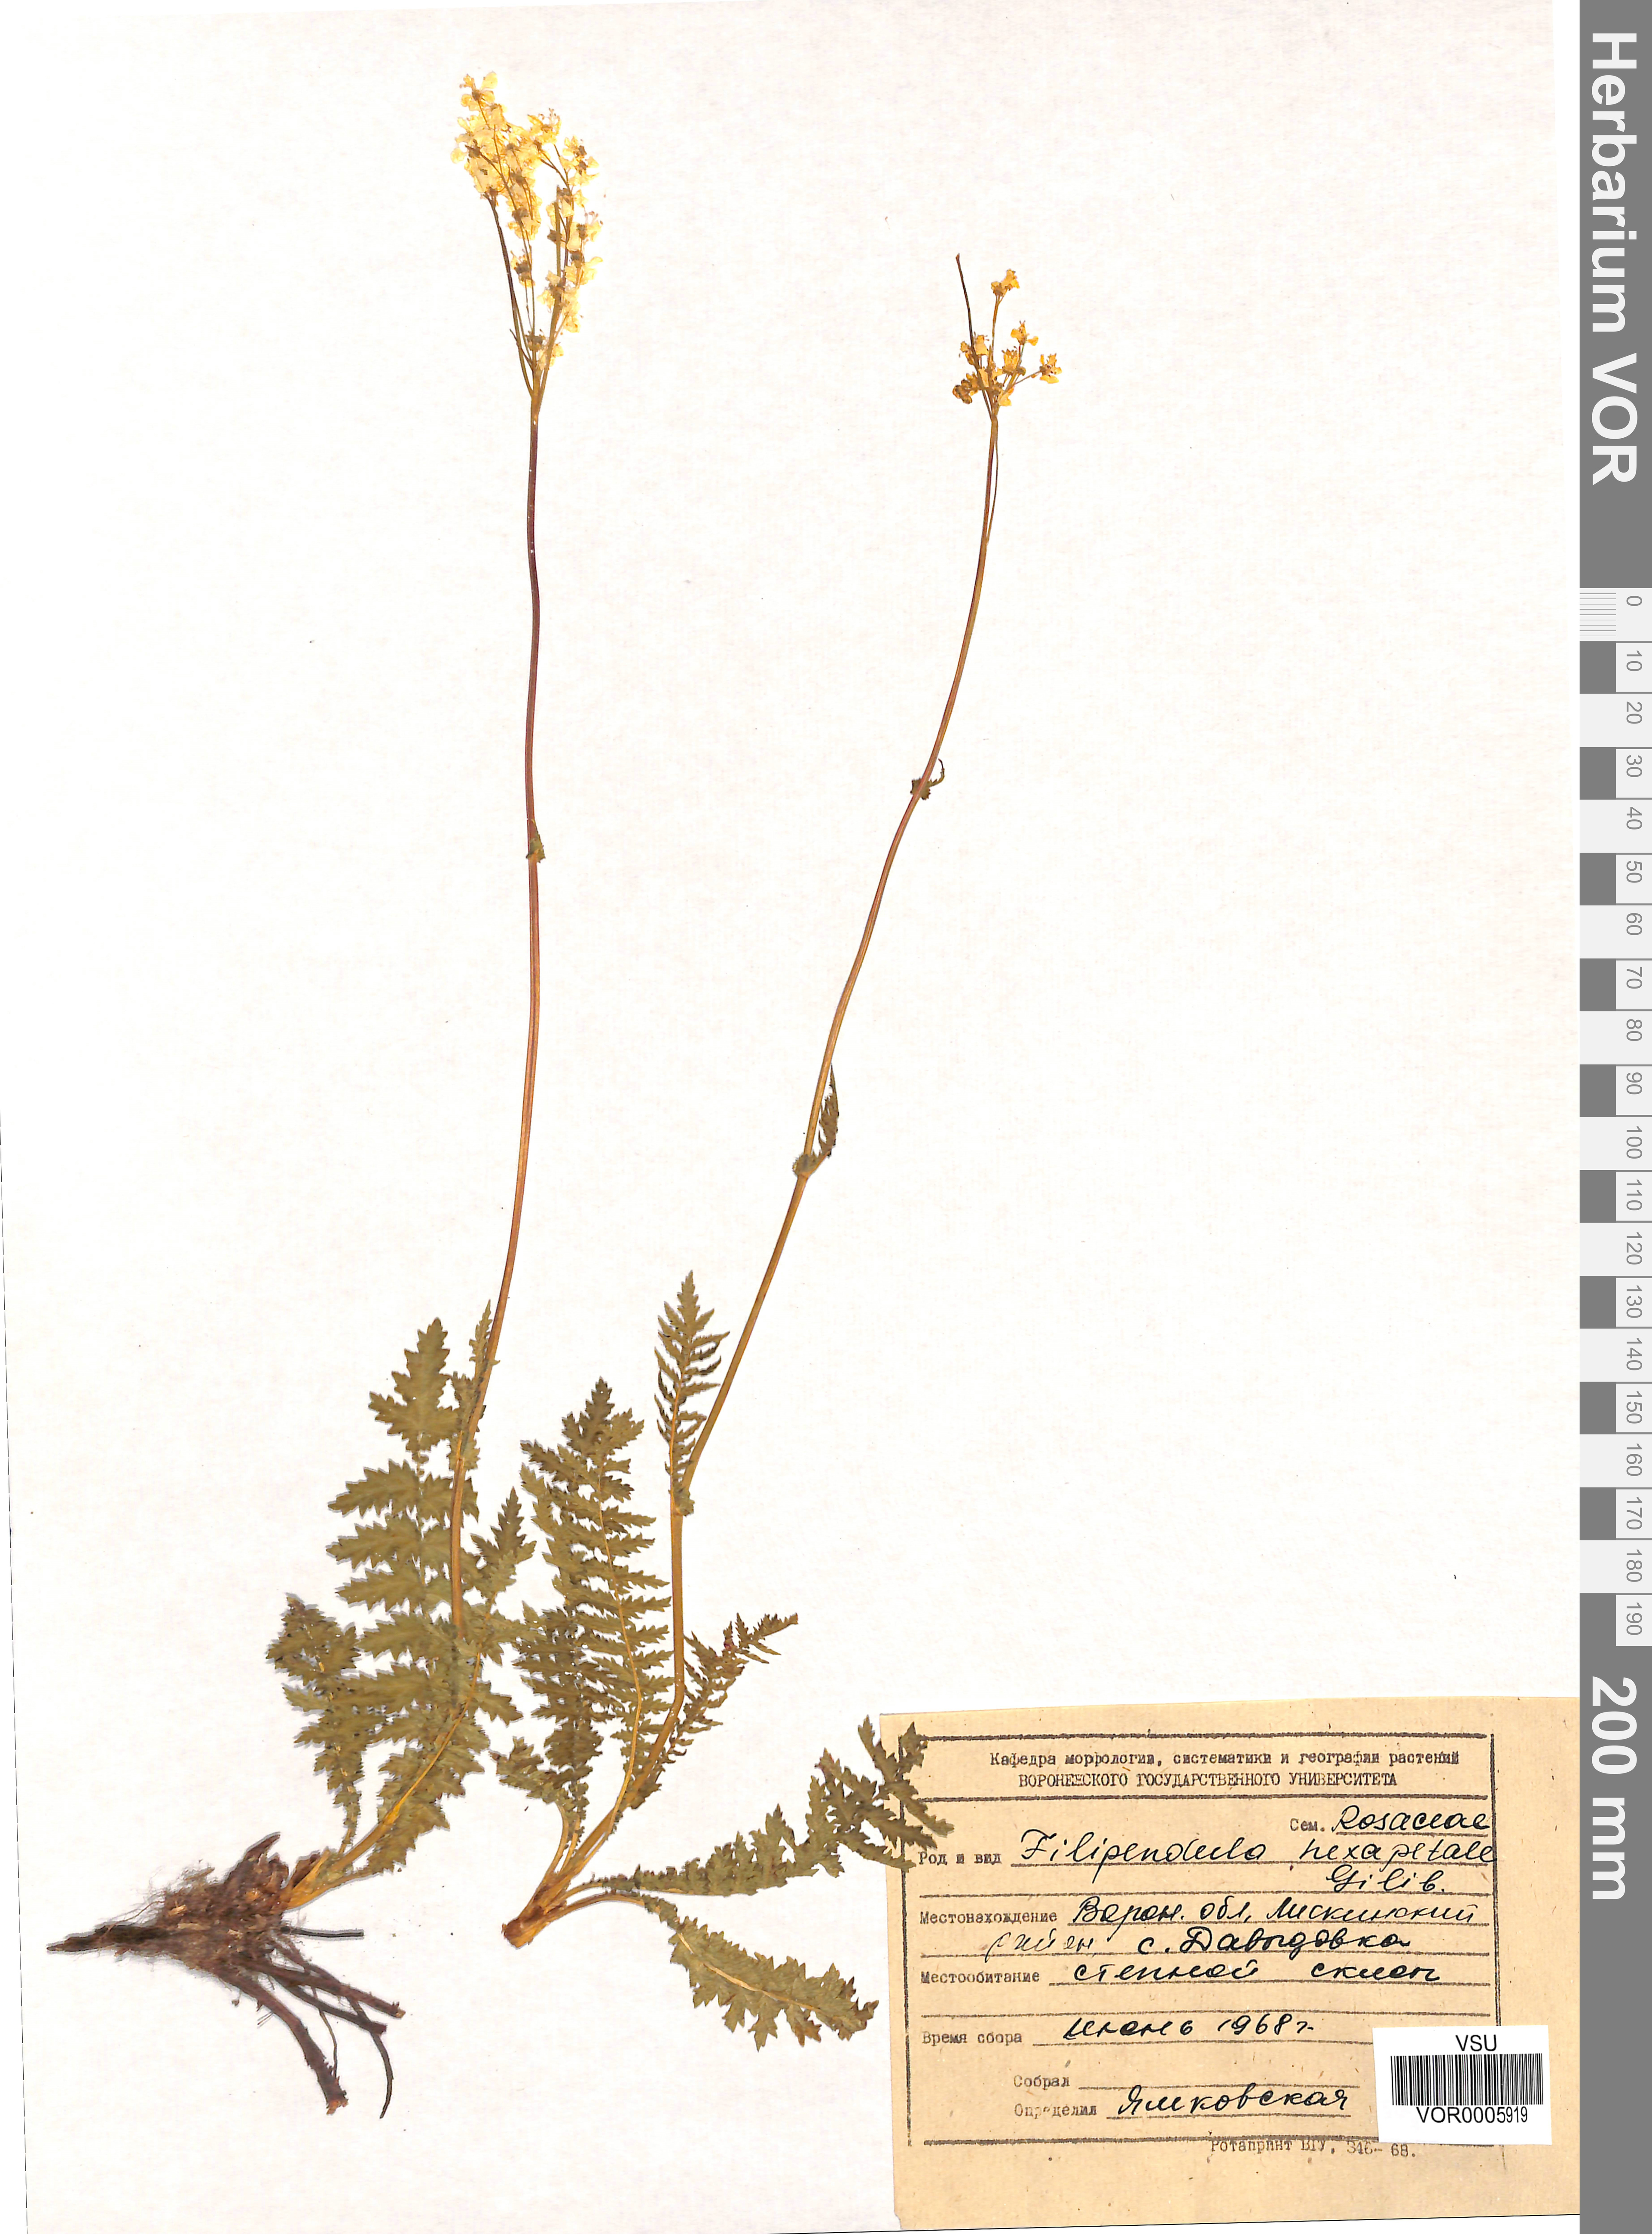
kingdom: Plantae
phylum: Tracheophyta
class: Magnoliopsida
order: Rosales
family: Rosaceae
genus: Filipendula
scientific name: Filipendula vulgaris
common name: Dropwort
